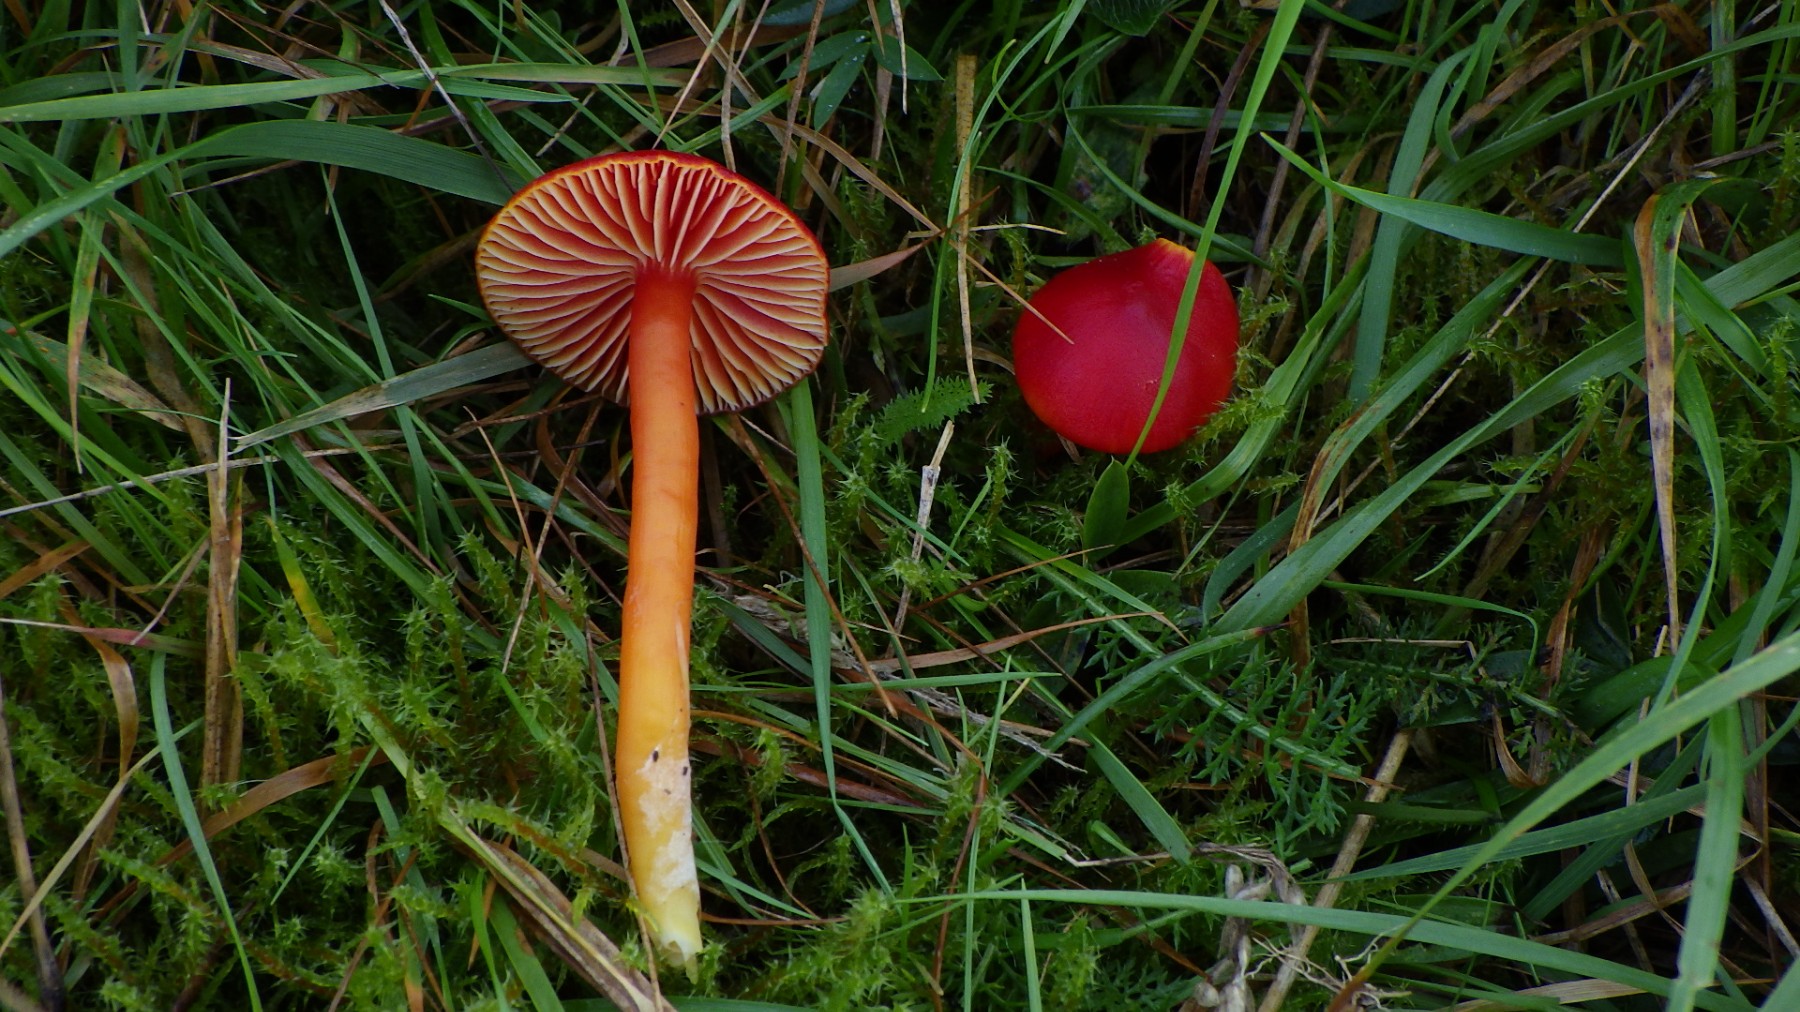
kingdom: Fungi
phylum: Basidiomycota
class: Agaricomycetes
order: Agaricales
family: Hygrophoraceae
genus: Hygrocybe
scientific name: Hygrocybe coccinea
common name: cinnober-vokshat
